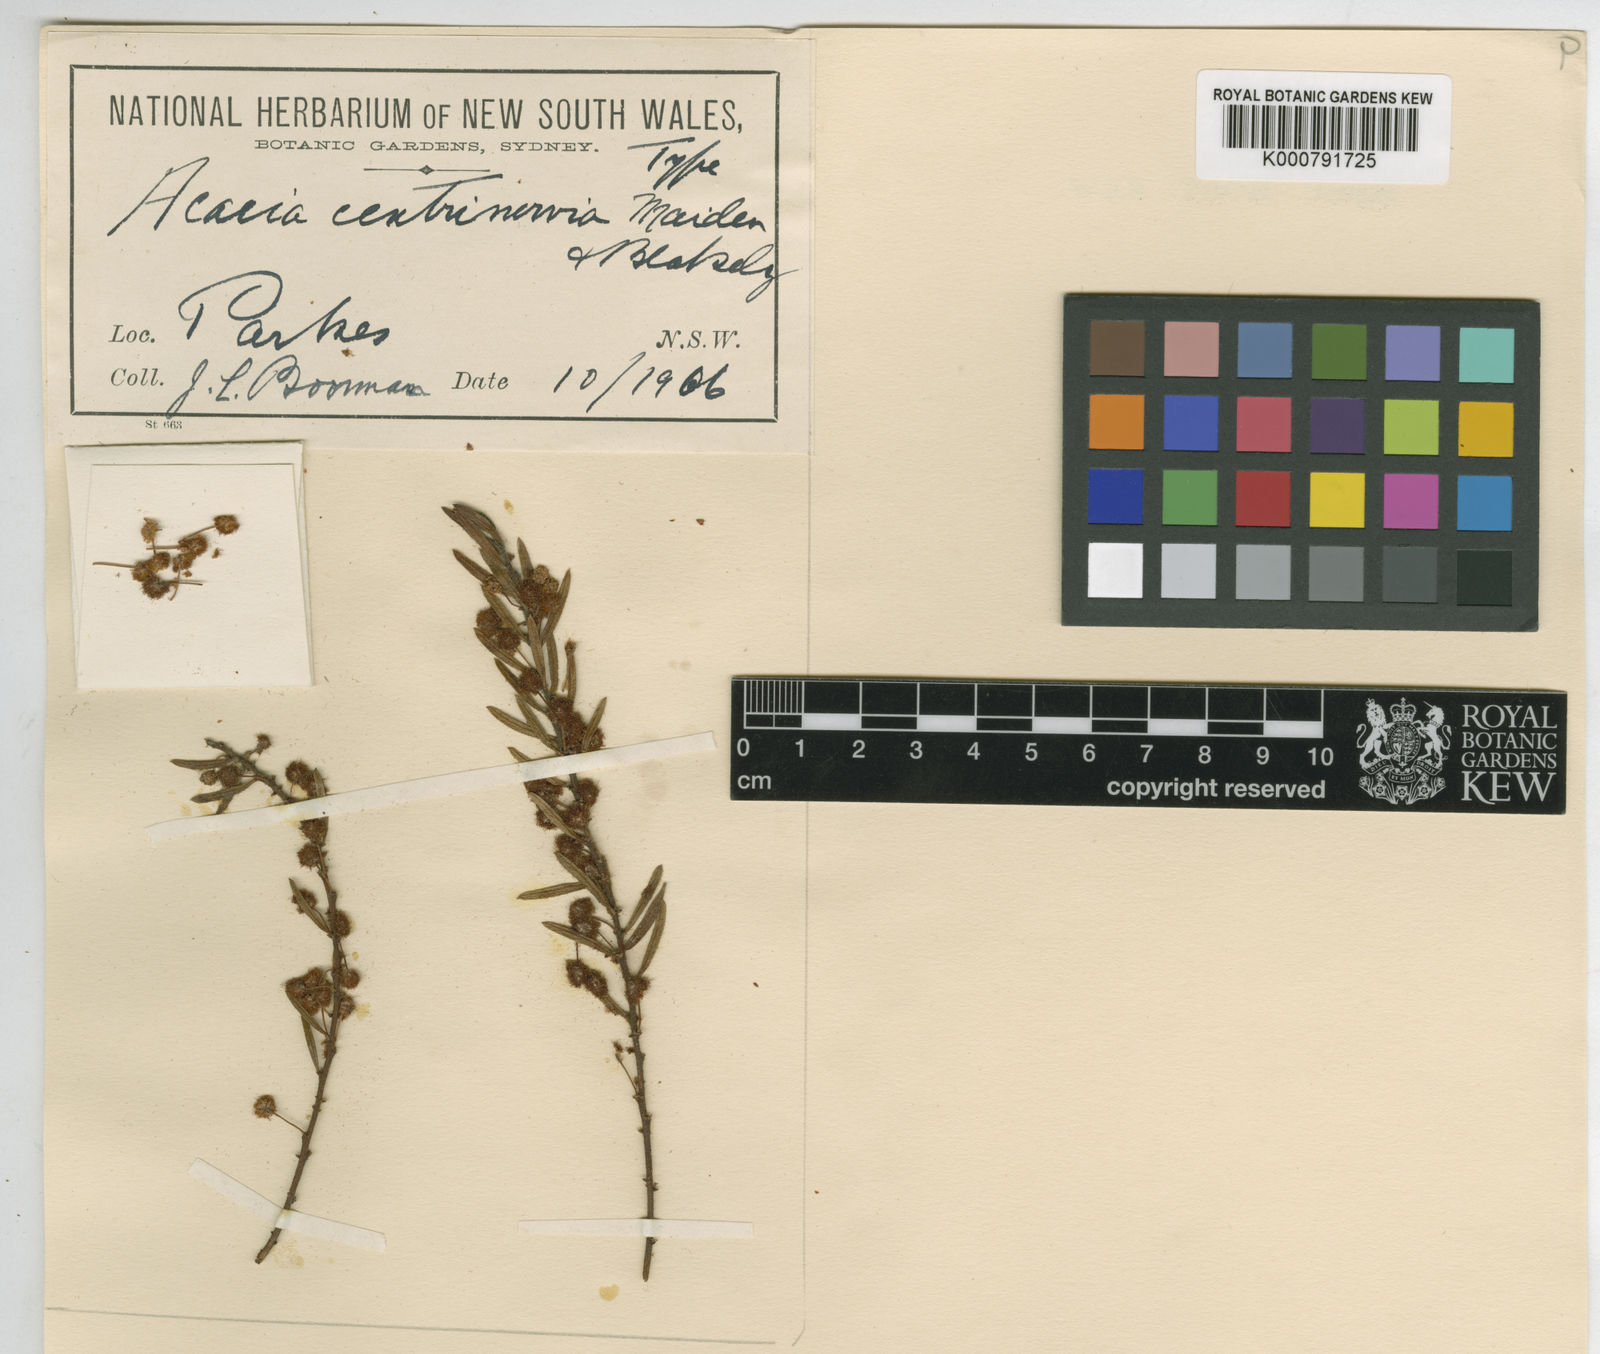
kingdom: Plantae
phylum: Tracheophyta
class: Magnoliopsida
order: Fabales
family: Fabaceae
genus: Acacia
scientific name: Acacia centrinervia
